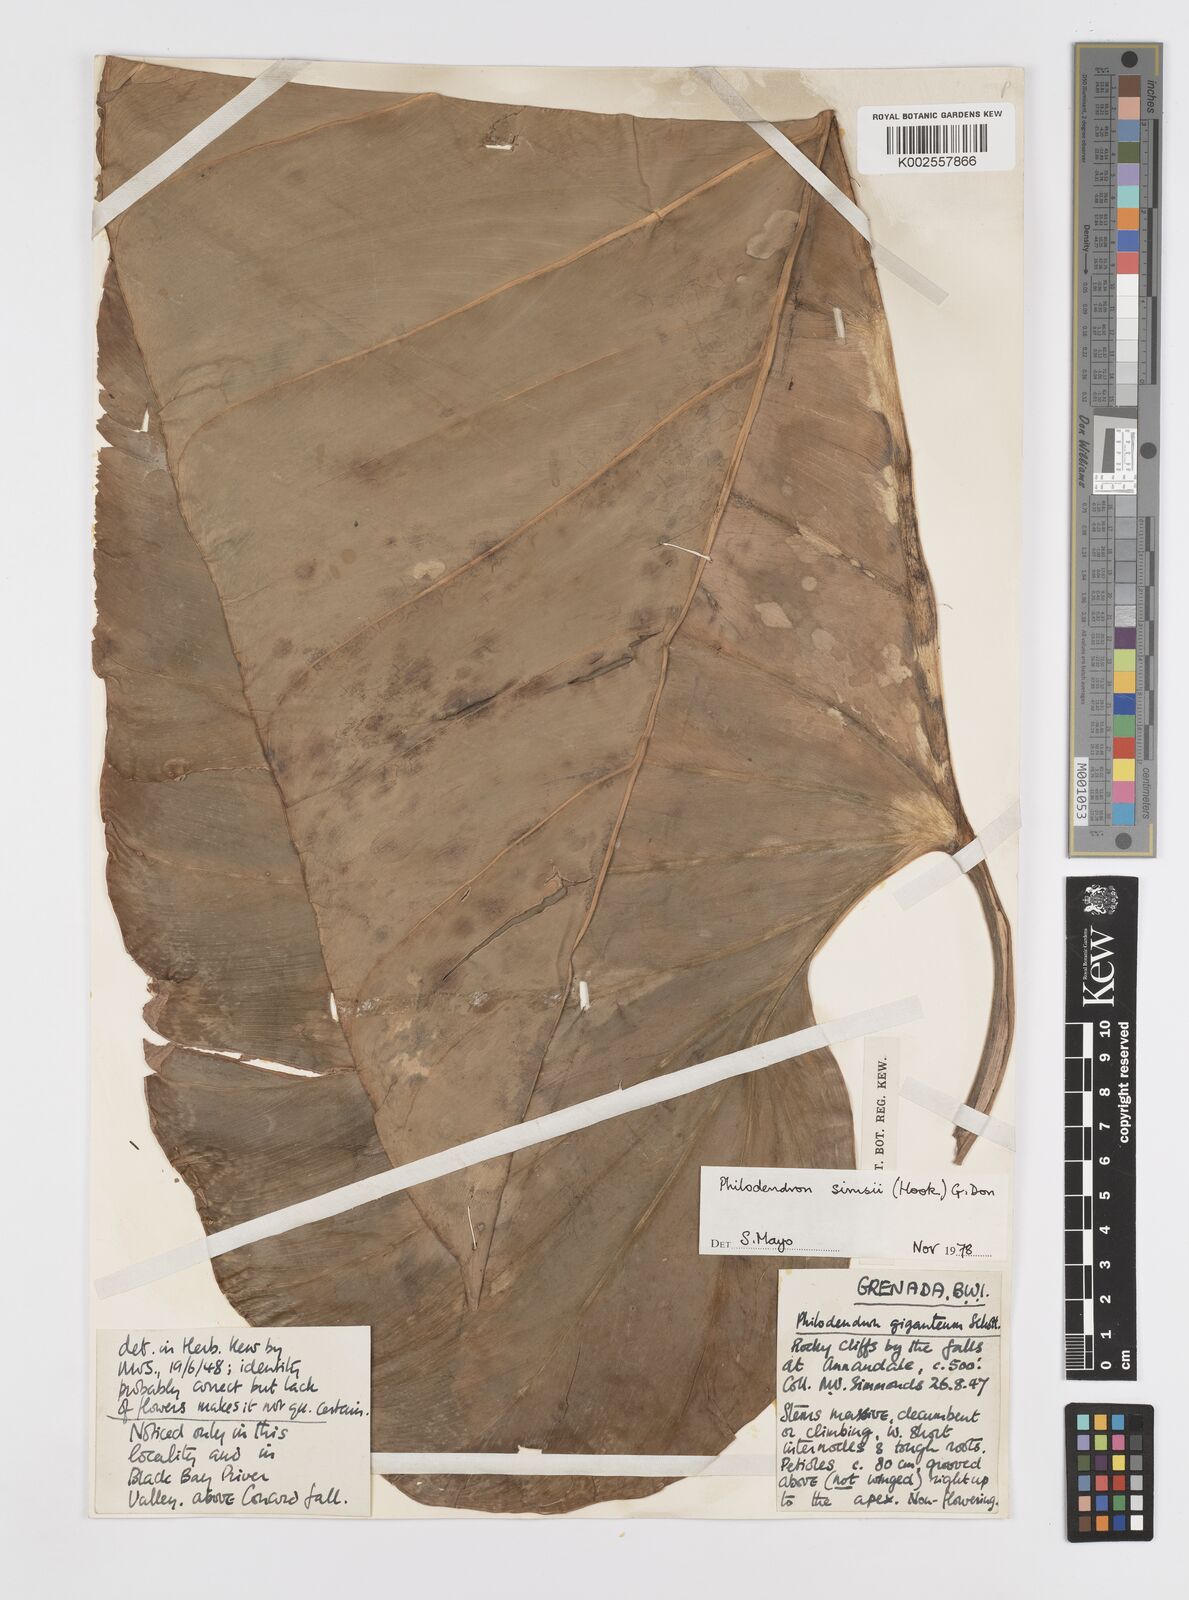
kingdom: Plantae
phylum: Tracheophyta
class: Liliopsida
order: Alismatales
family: Araceae
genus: Philodendron
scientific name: Philodendron
